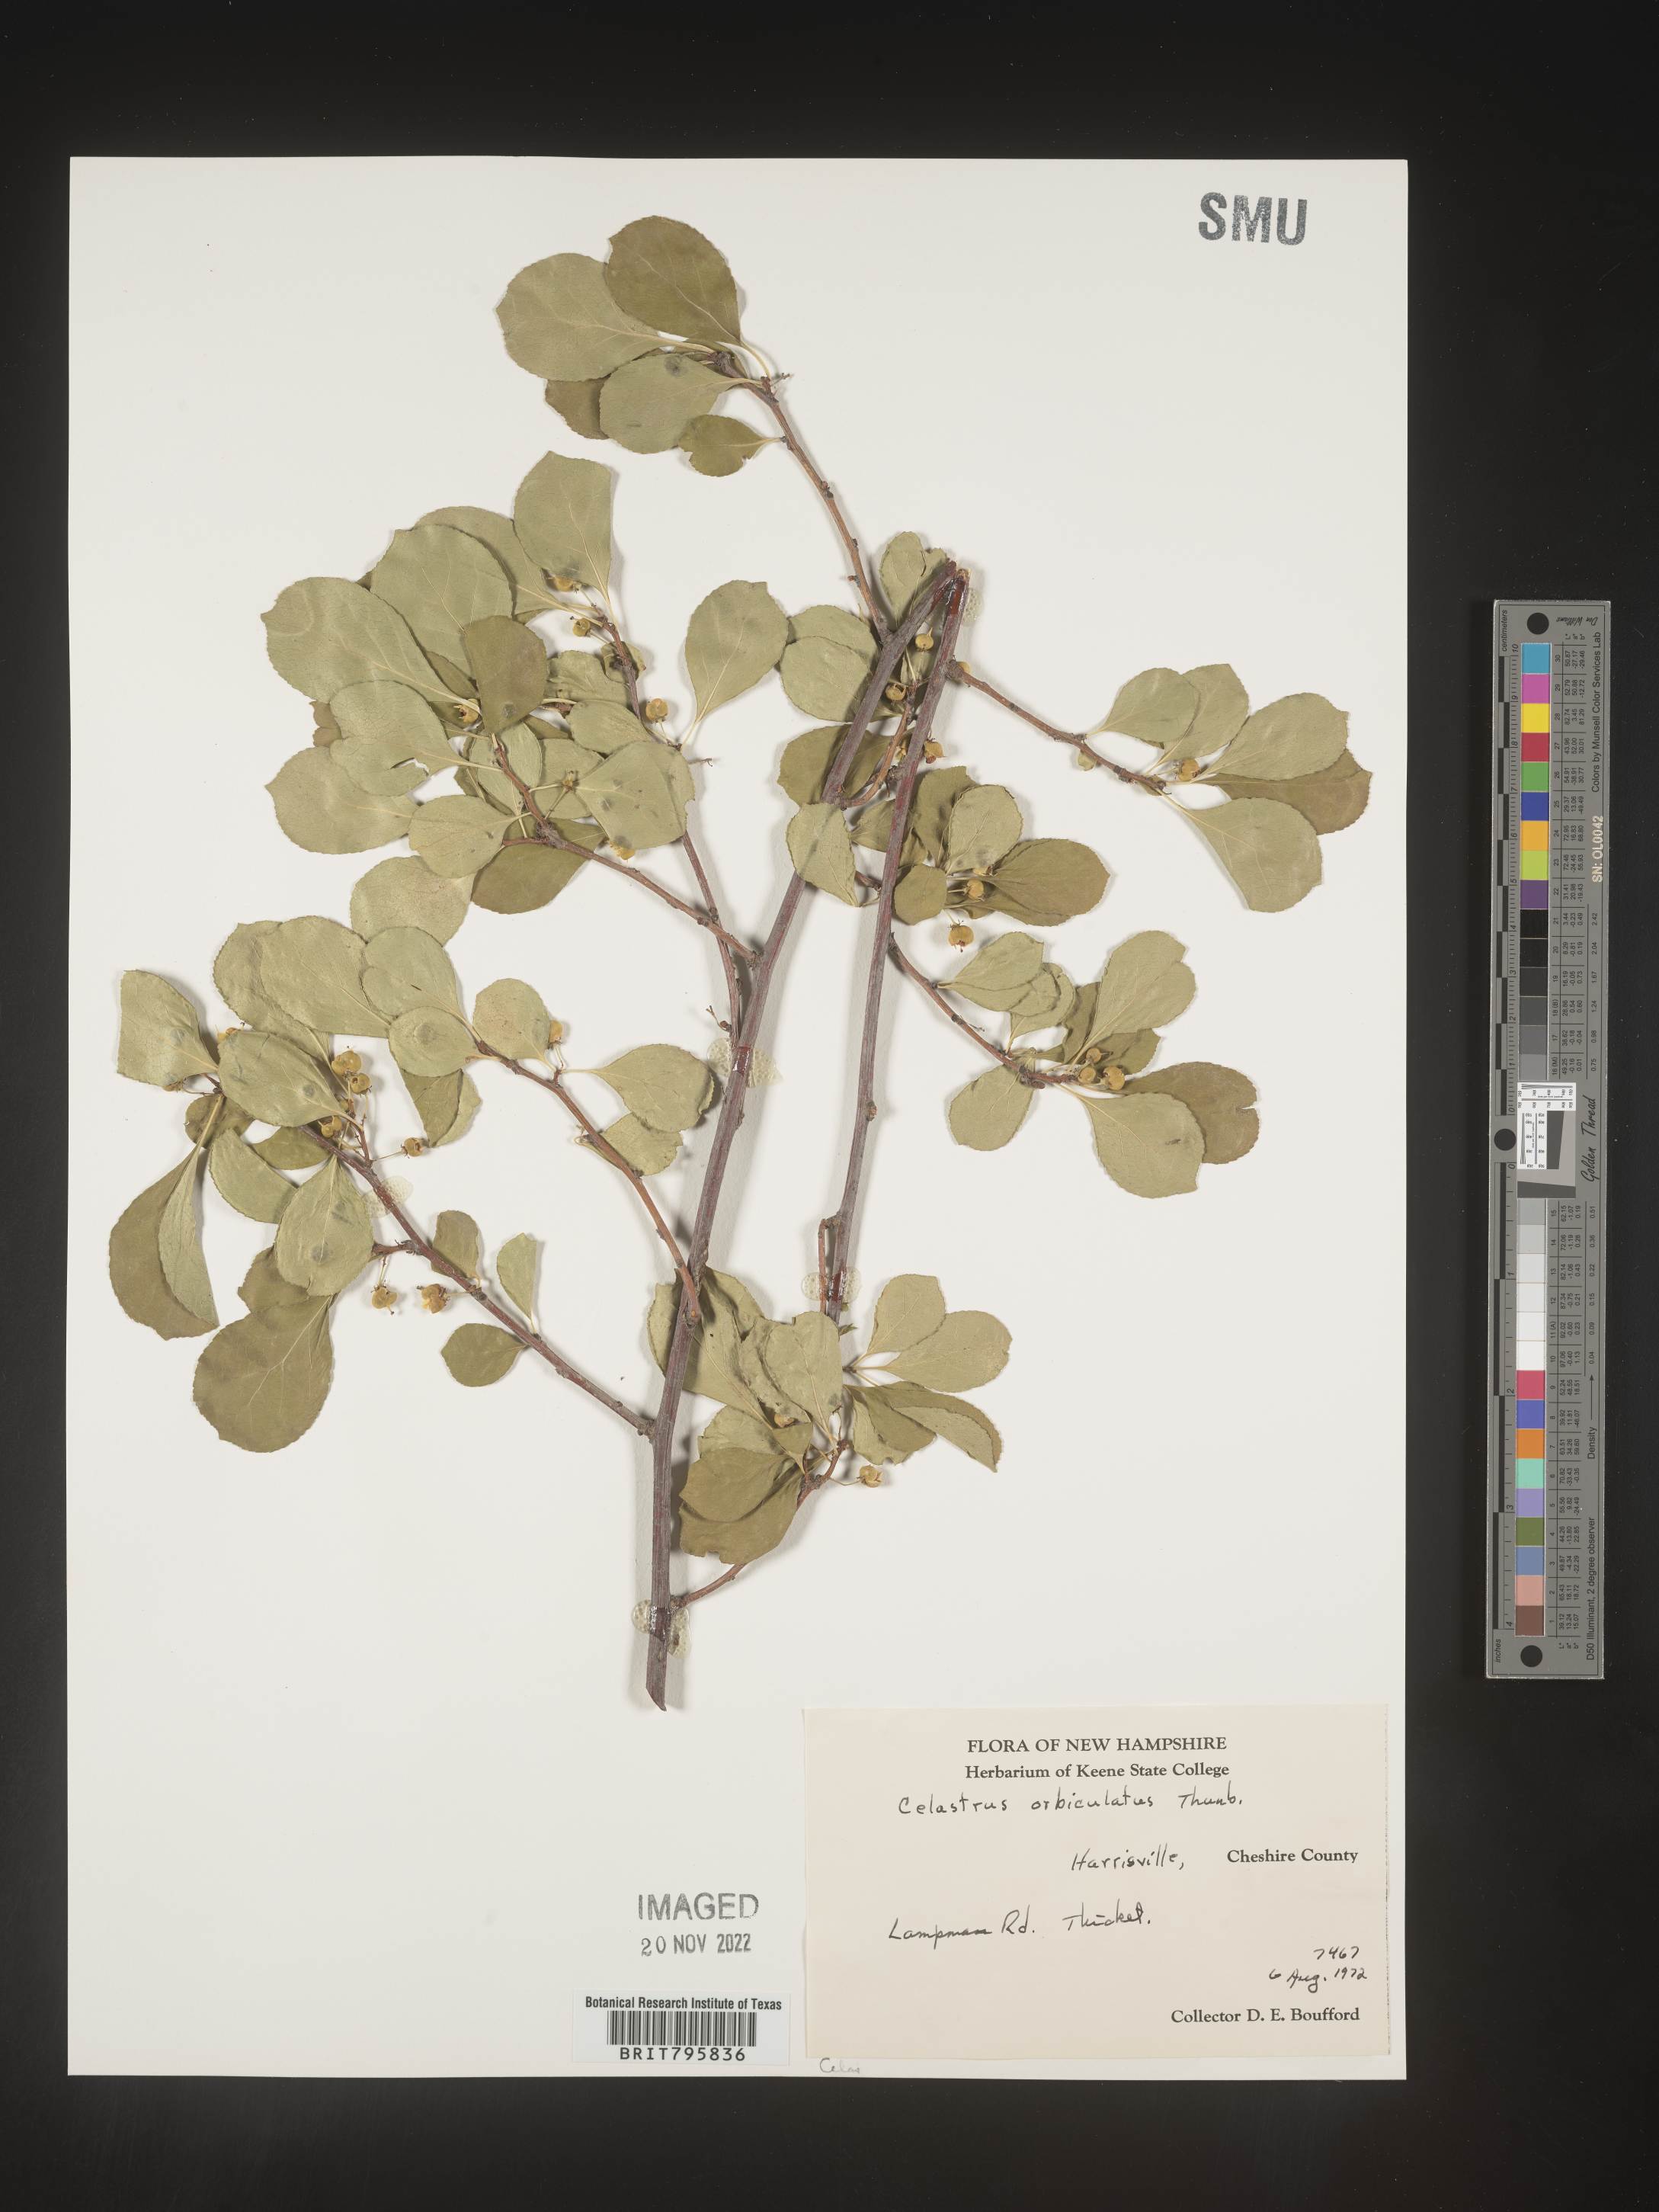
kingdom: Plantae
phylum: Tracheophyta
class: Magnoliopsida
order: Celastrales
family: Celastraceae
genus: Celastrus
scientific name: Celastrus
